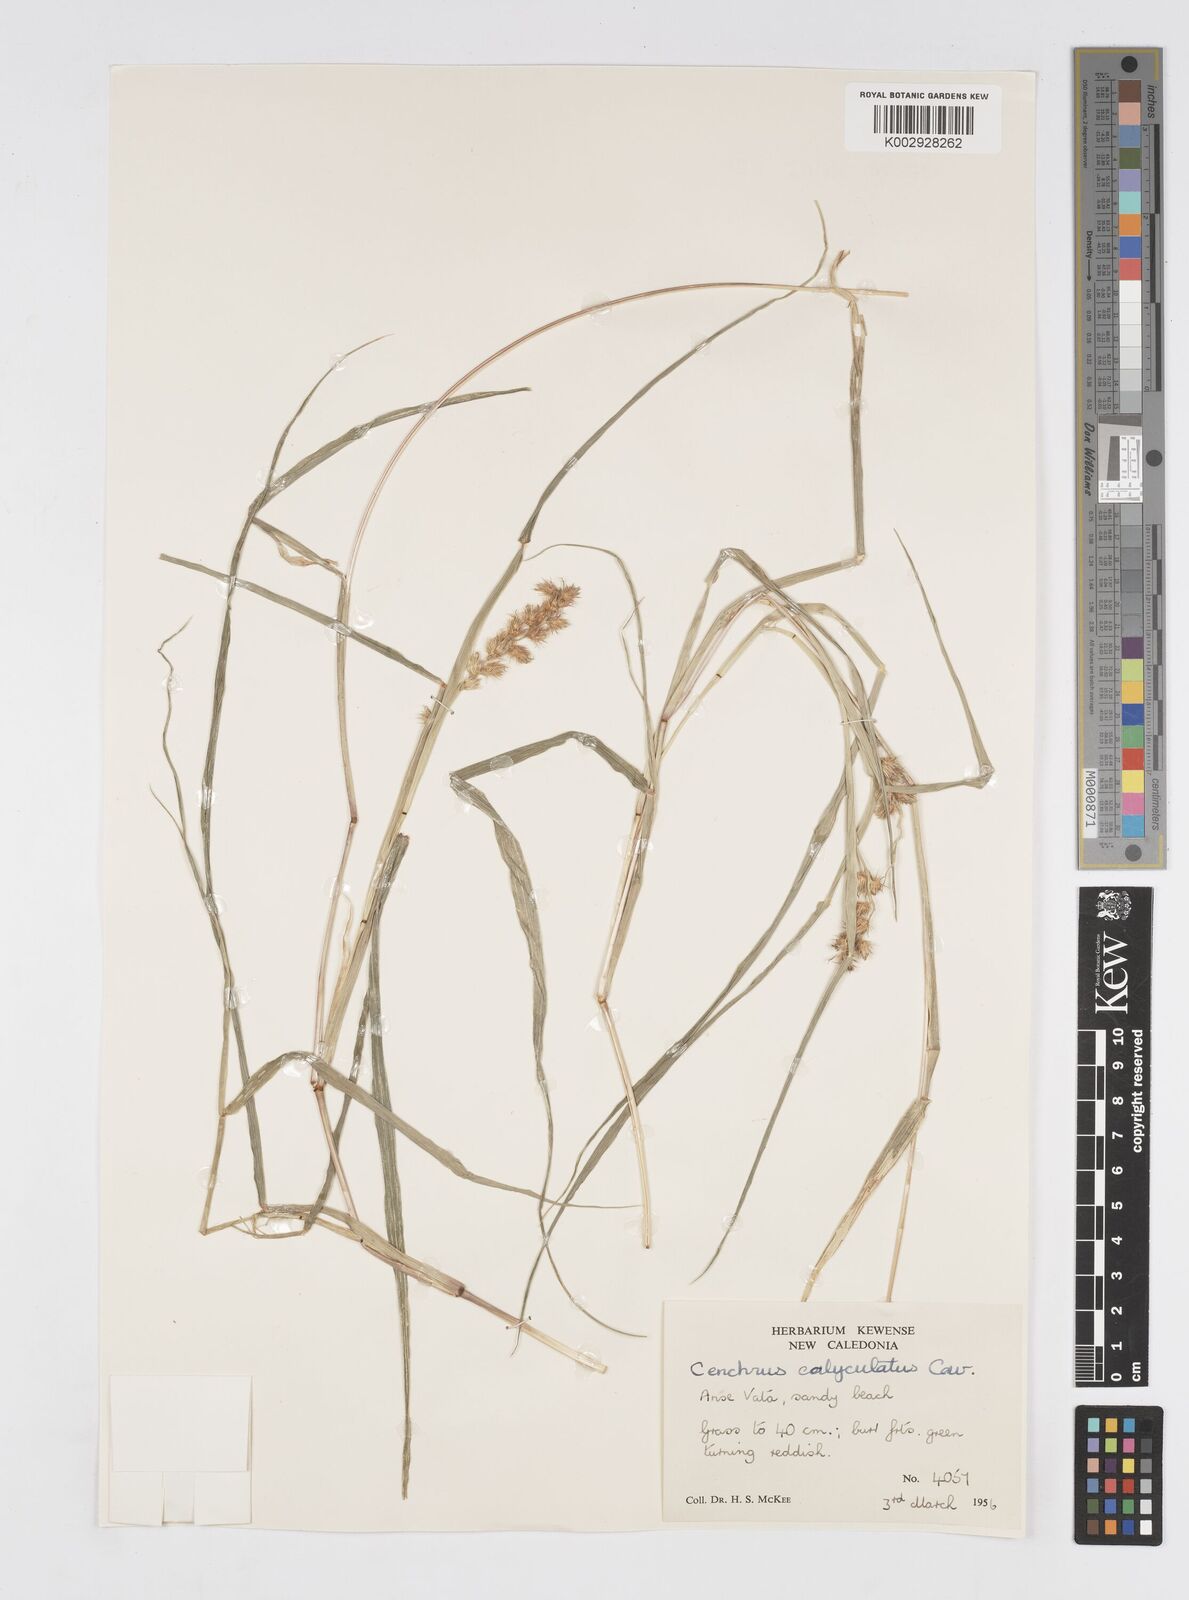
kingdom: Plantae
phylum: Tracheophyta
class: Liliopsida
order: Poales
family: Poaceae
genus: Cenchrus
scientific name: Cenchrus caliculatus
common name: Large bur grass
